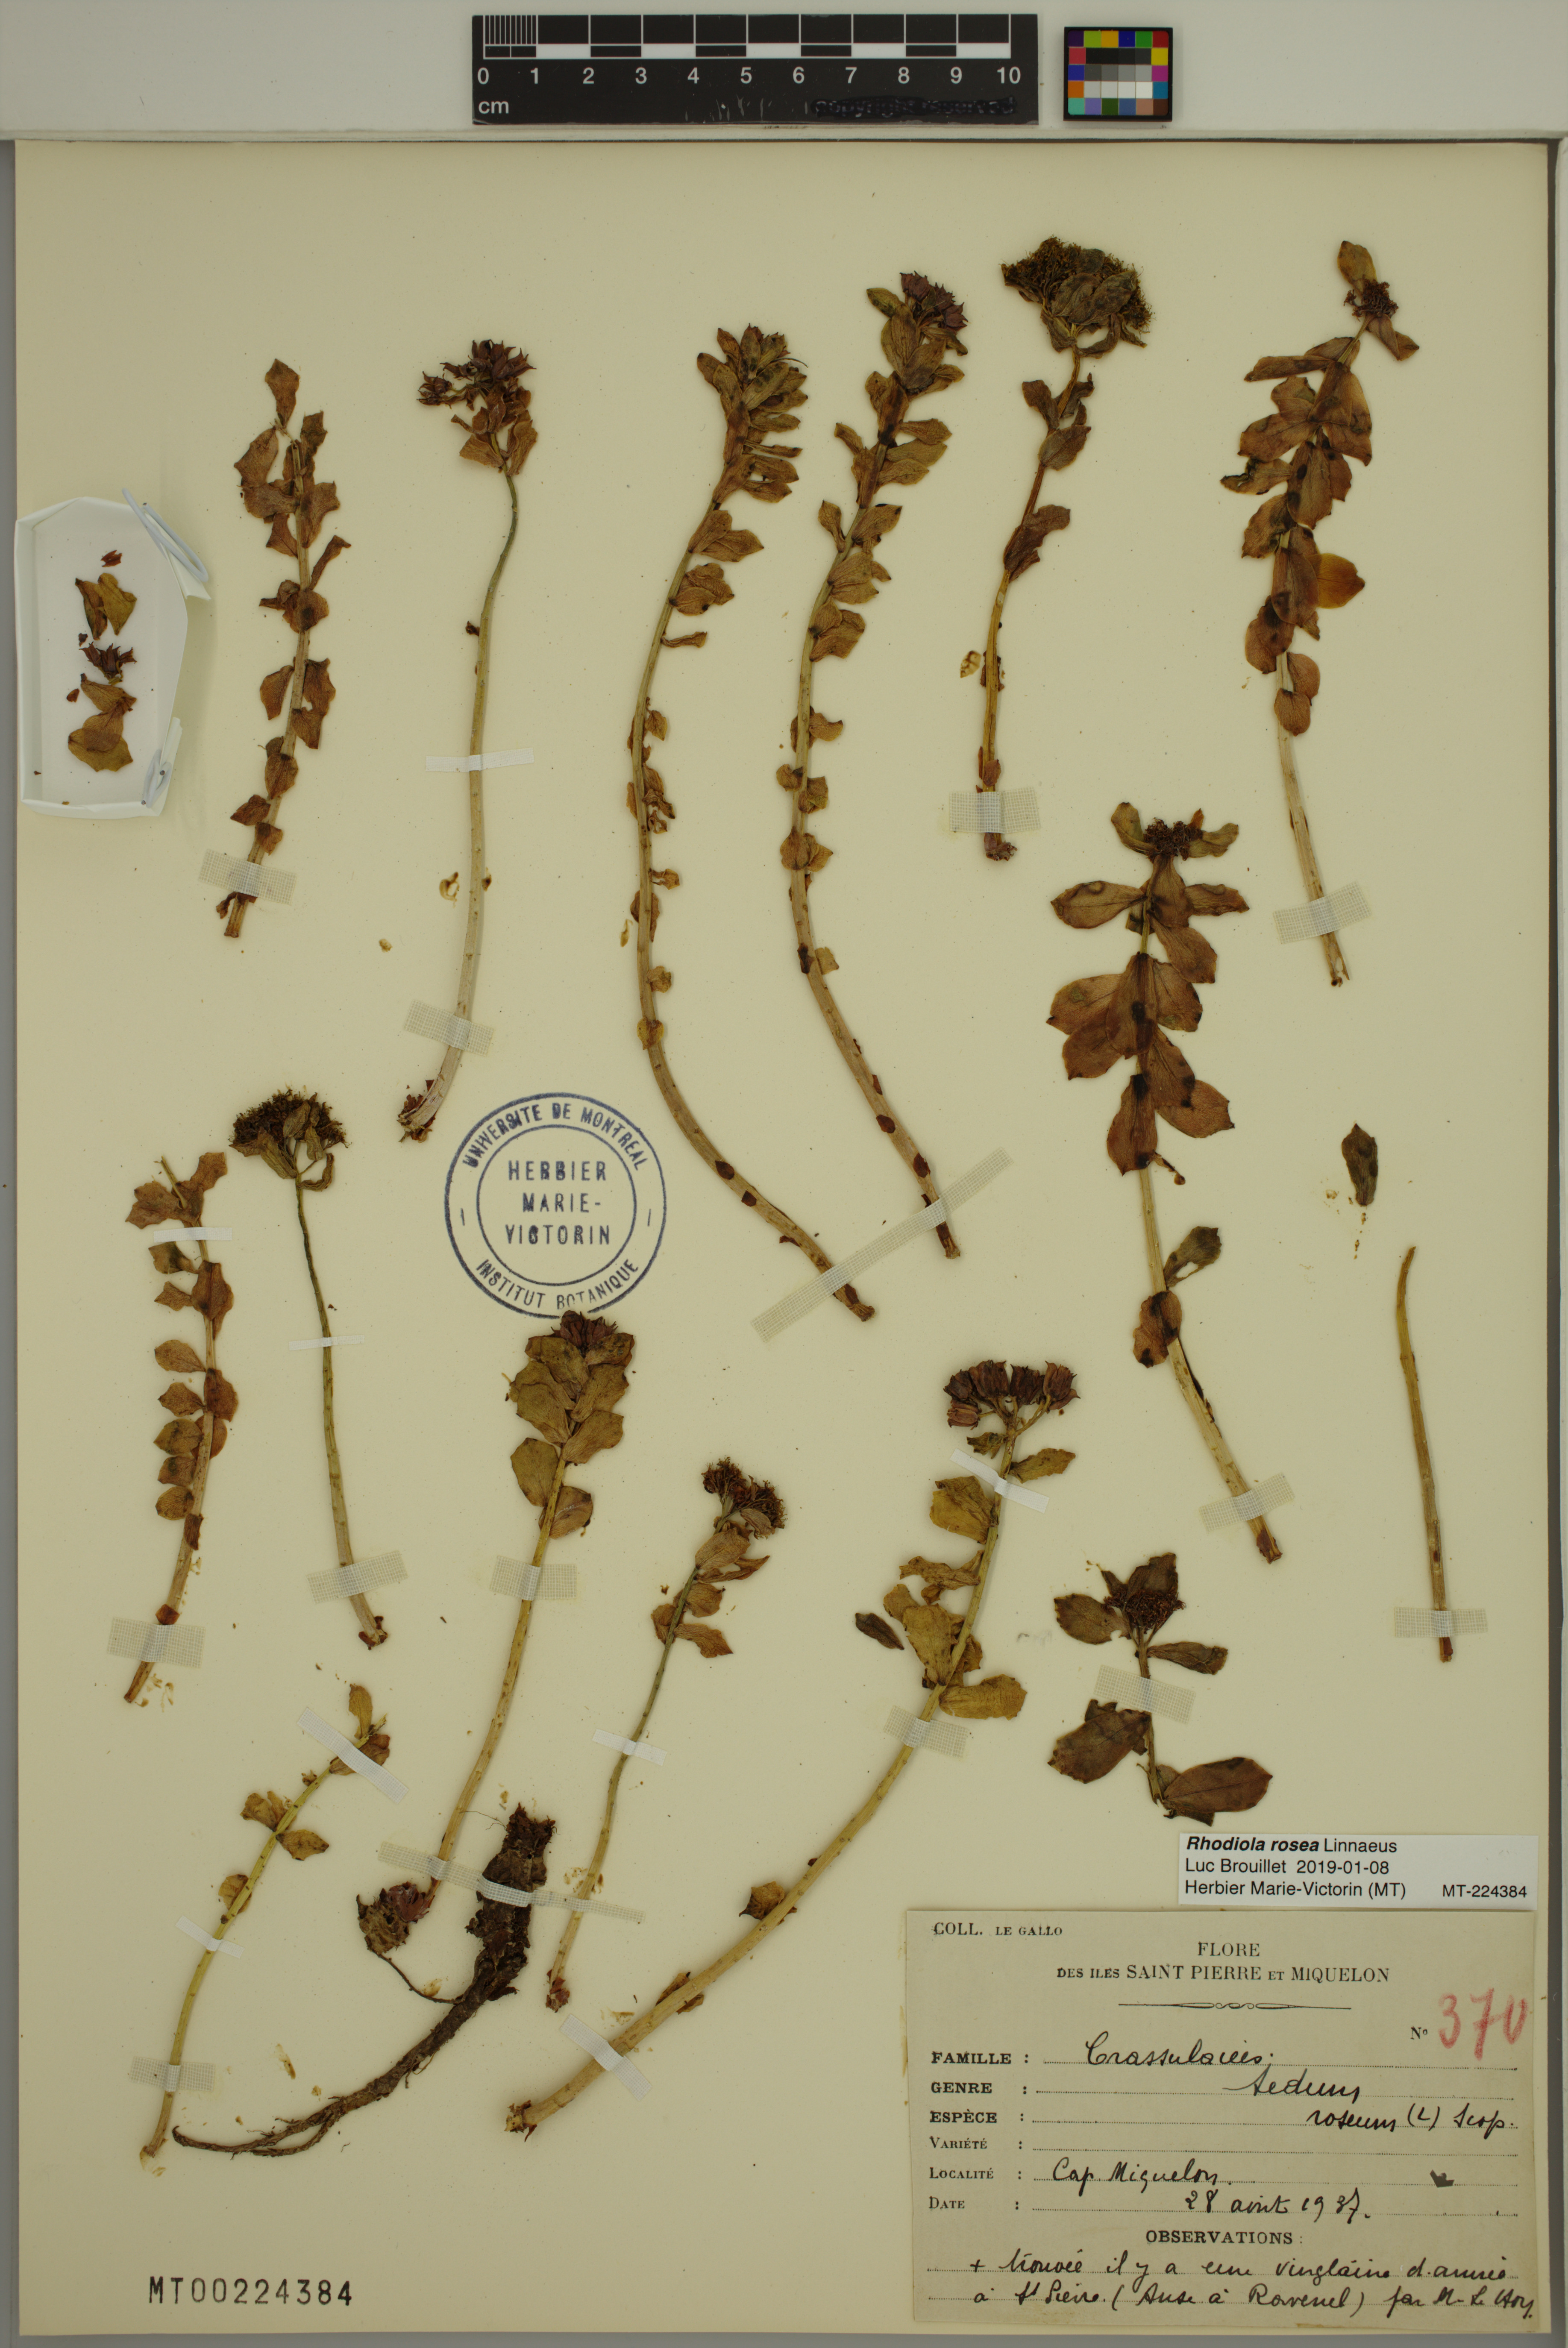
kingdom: Plantae
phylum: Tracheophyta
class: Magnoliopsida
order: Saxifragales
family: Crassulaceae
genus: Rhodiola
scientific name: Rhodiola rosea
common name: Roseroot
